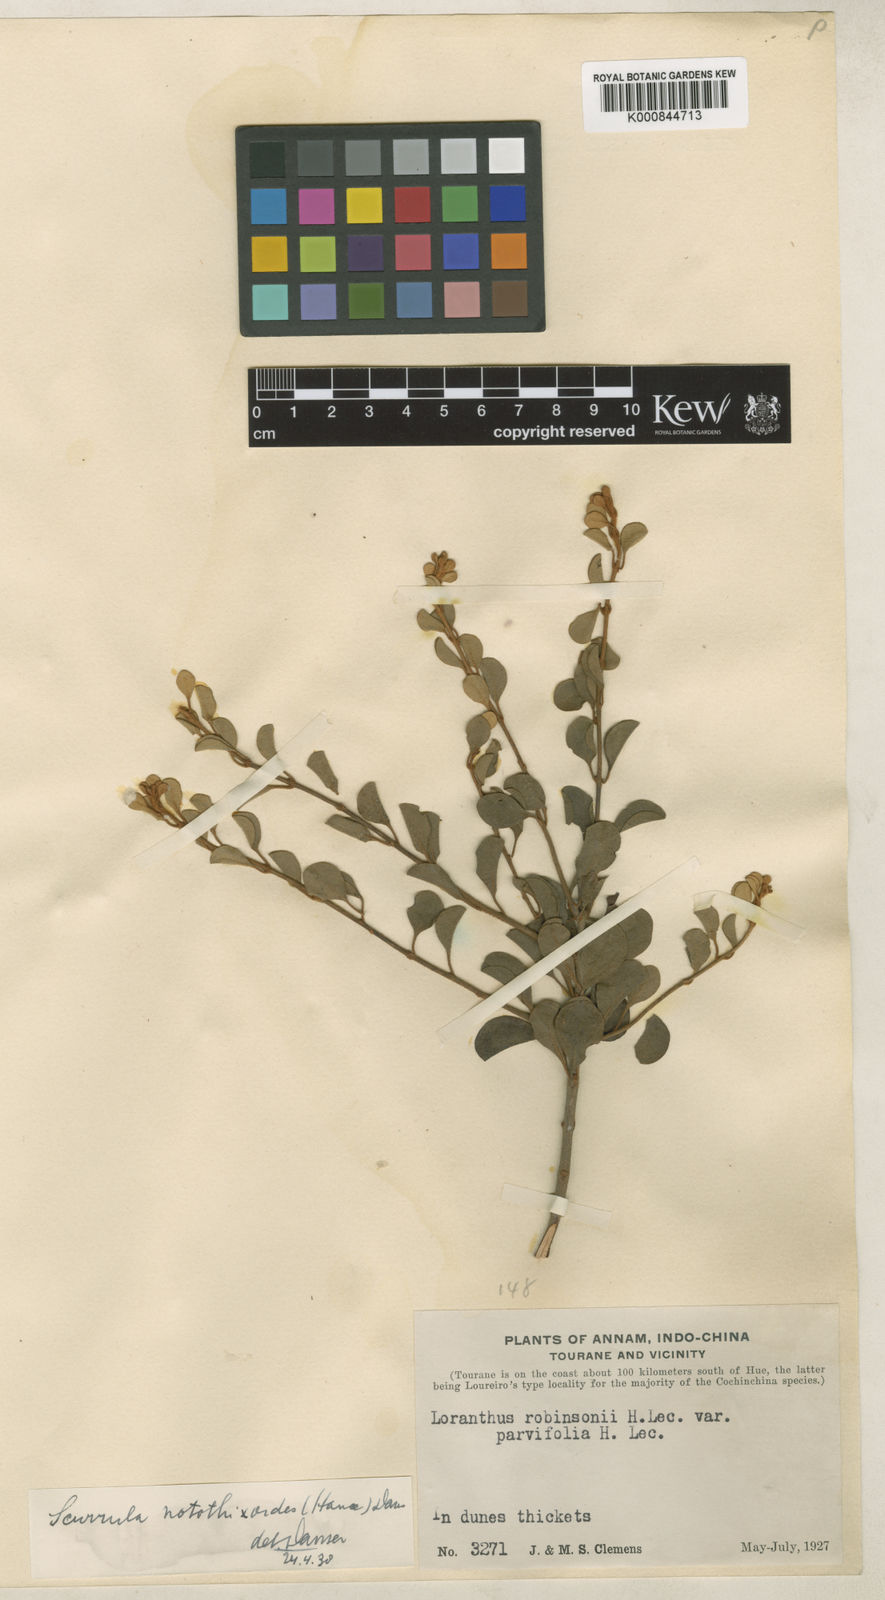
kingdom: Plantae
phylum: Tracheophyta
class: Magnoliopsida
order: Santalales
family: Loranthaceae
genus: Scurrula
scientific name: Scurrula notothixoides
